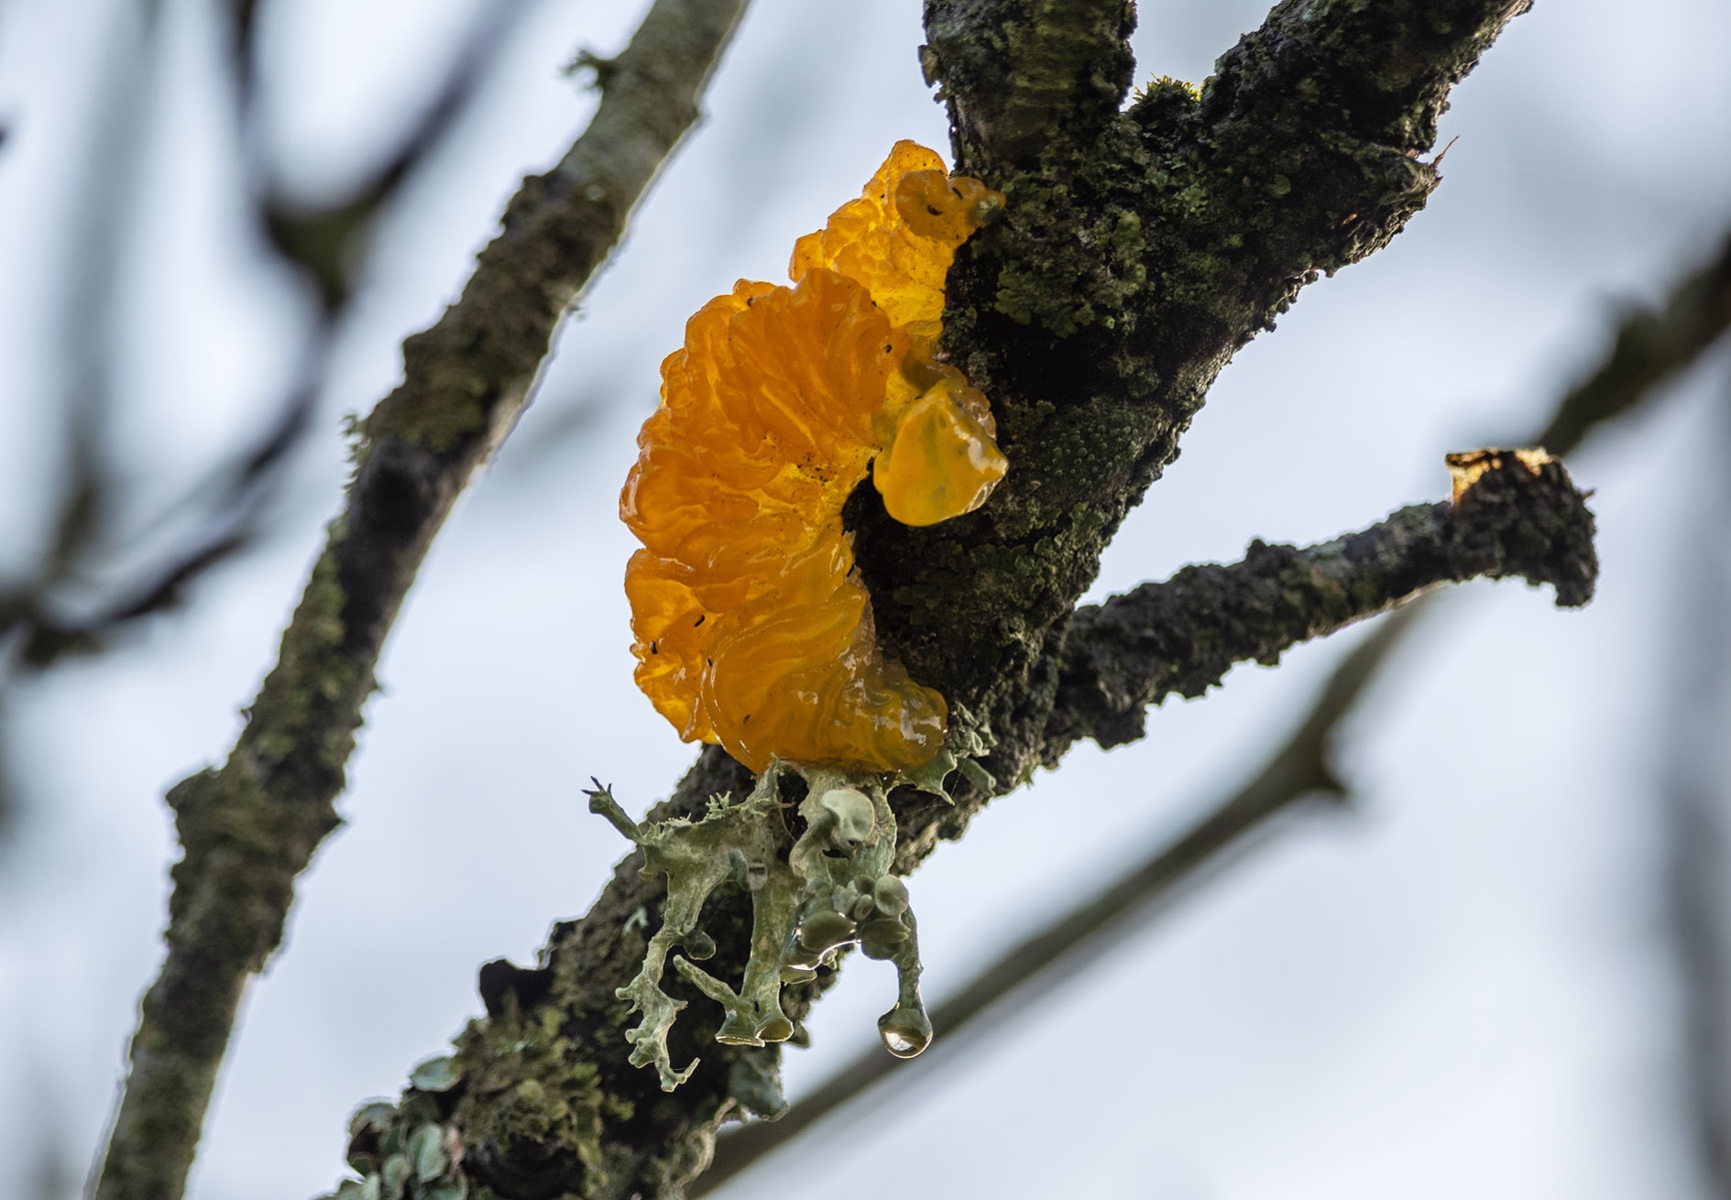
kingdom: Fungi
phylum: Basidiomycota
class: Tremellomycetes
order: Tremellales
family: Tremellaceae
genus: Tremella
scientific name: Tremella mesenterica
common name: gul bævresvamp
